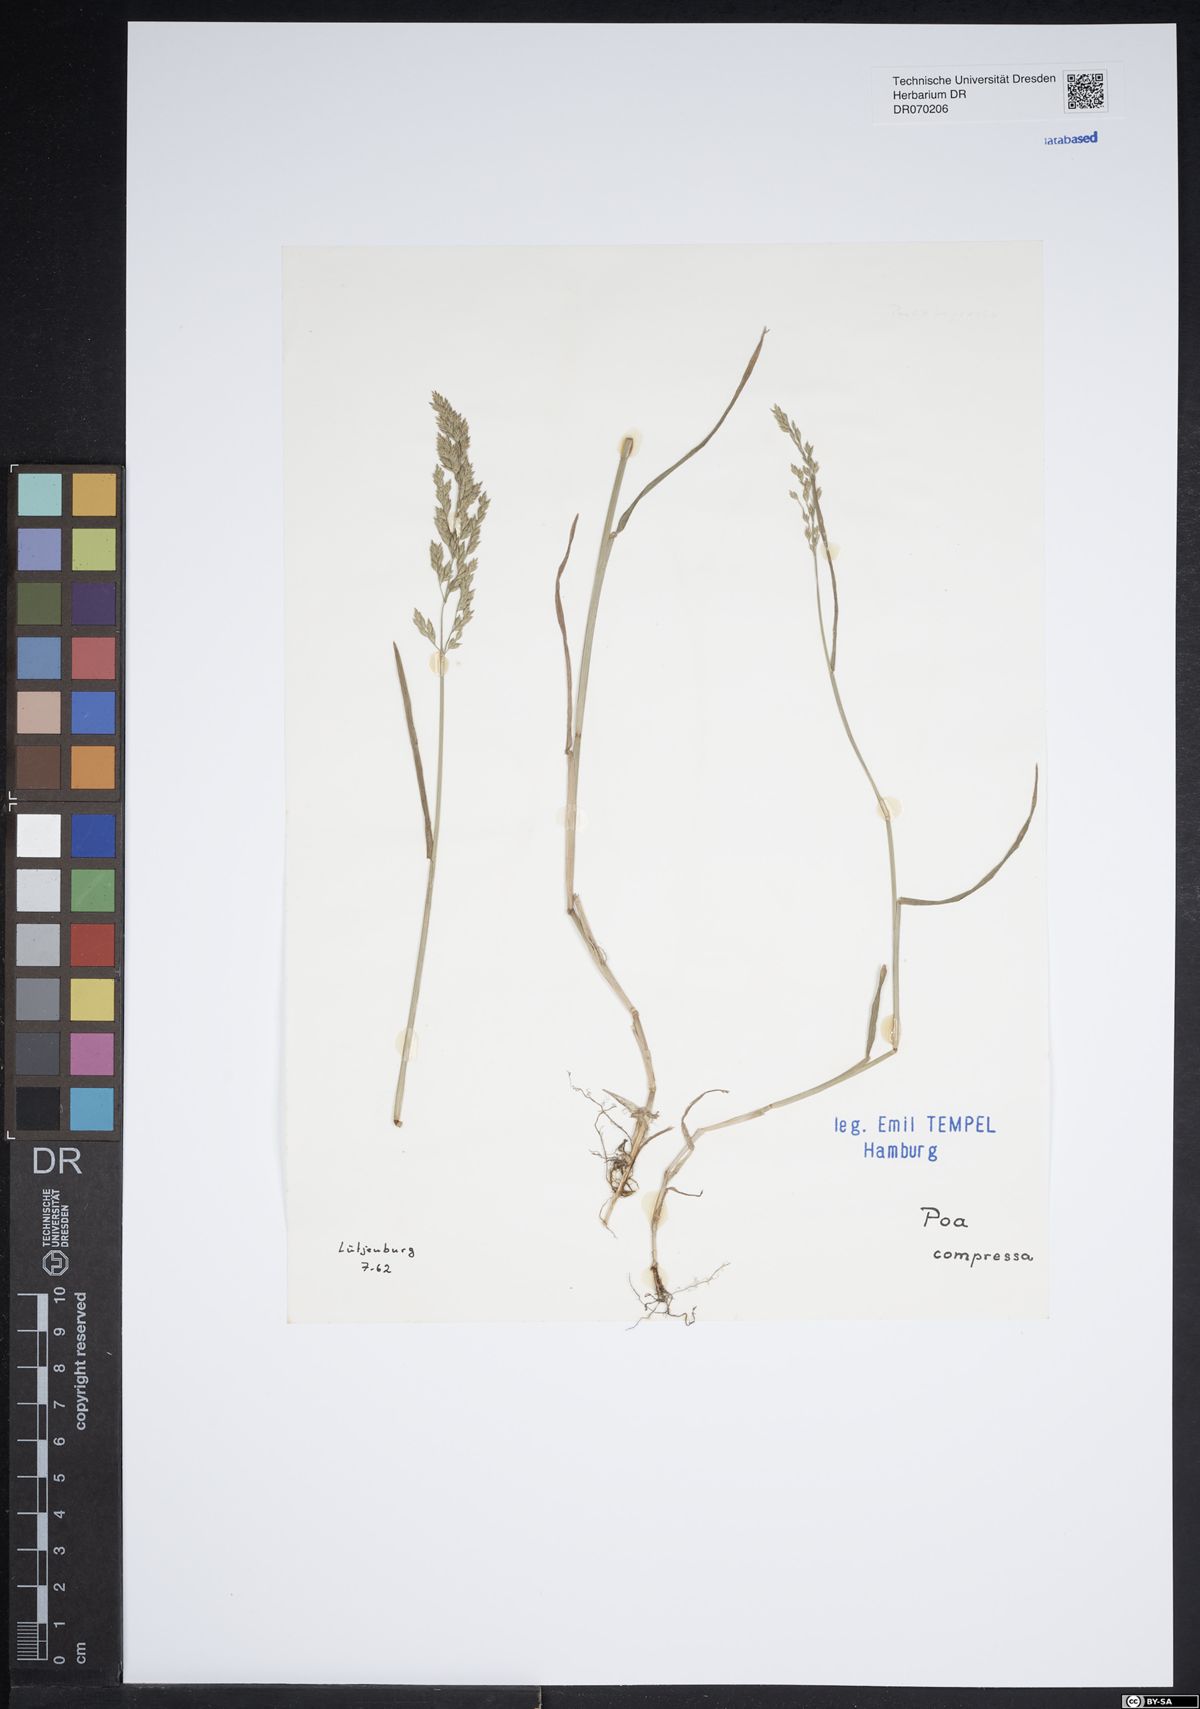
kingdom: Plantae
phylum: Tracheophyta
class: Liliopsida
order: Poales
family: Poaceae
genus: Poa
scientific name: Poa compressa
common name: Canada bluegrass
